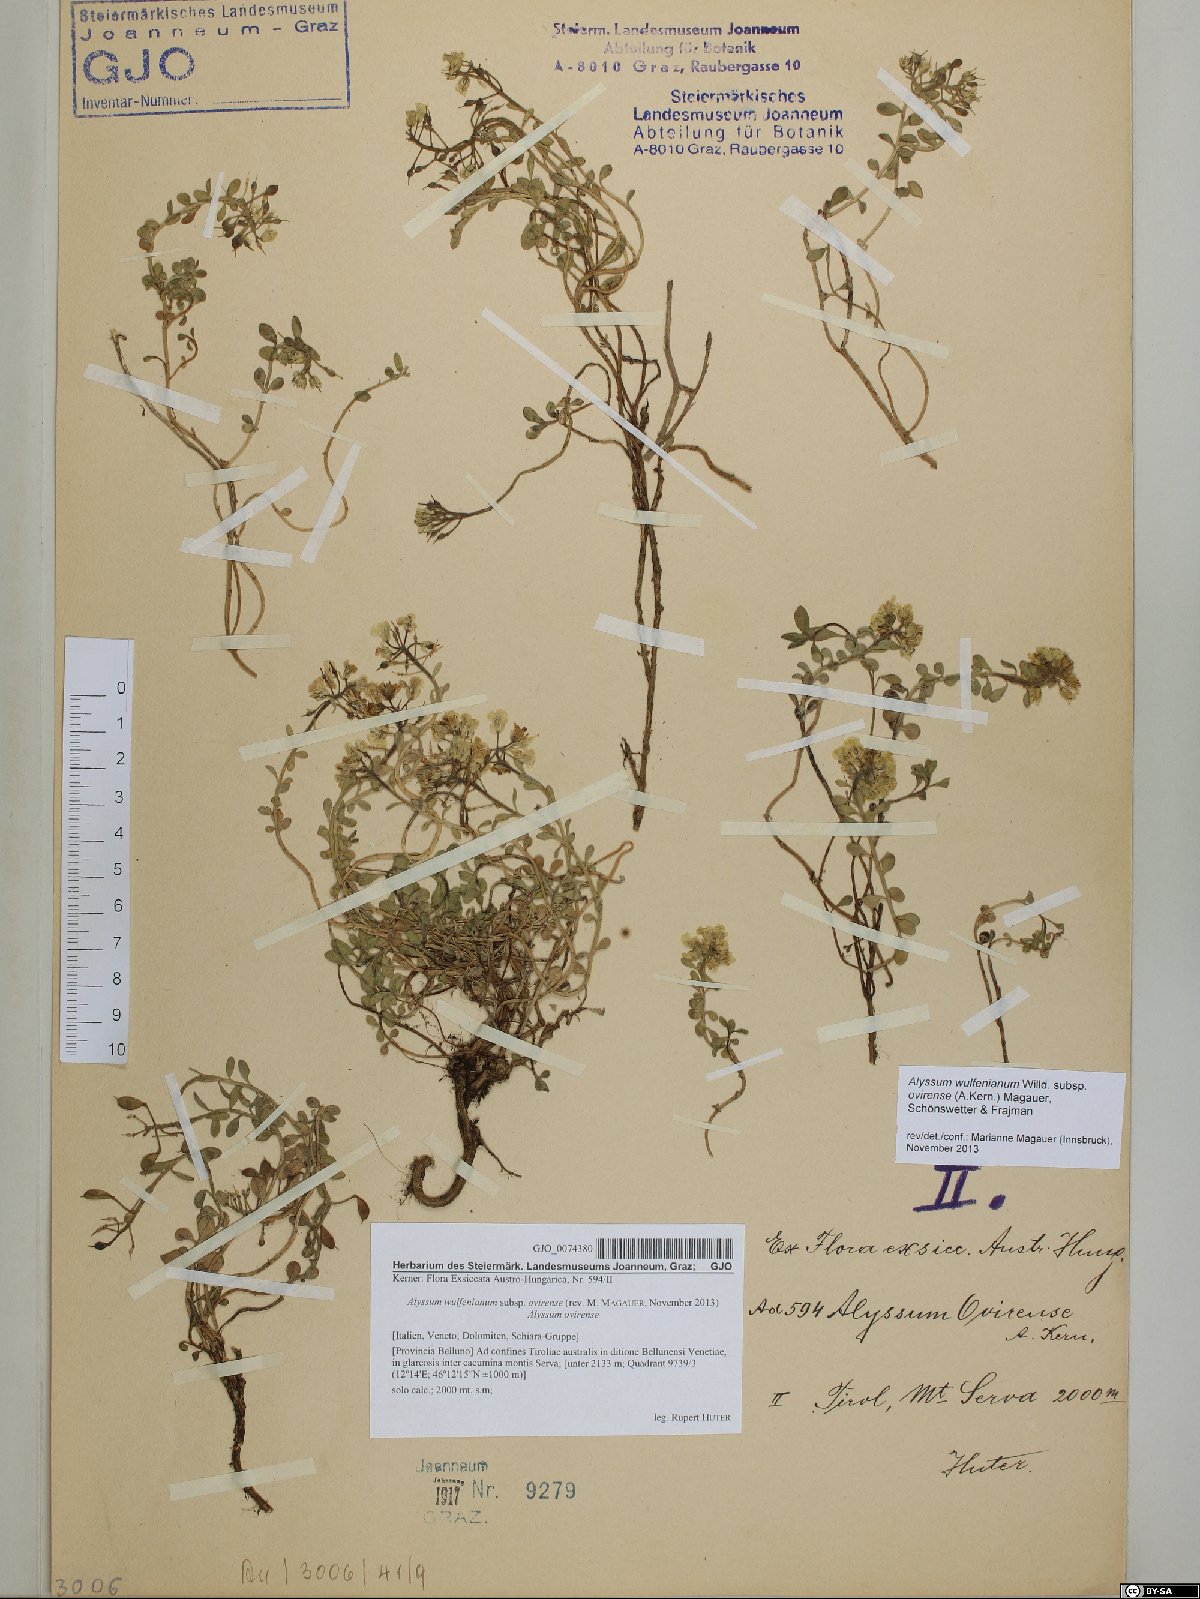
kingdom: Plantae
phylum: Tracheophyta
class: Magnoliopsida
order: Brassicales
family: Brassicaceae
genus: Alyssum
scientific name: Alyssum wulfenianum
